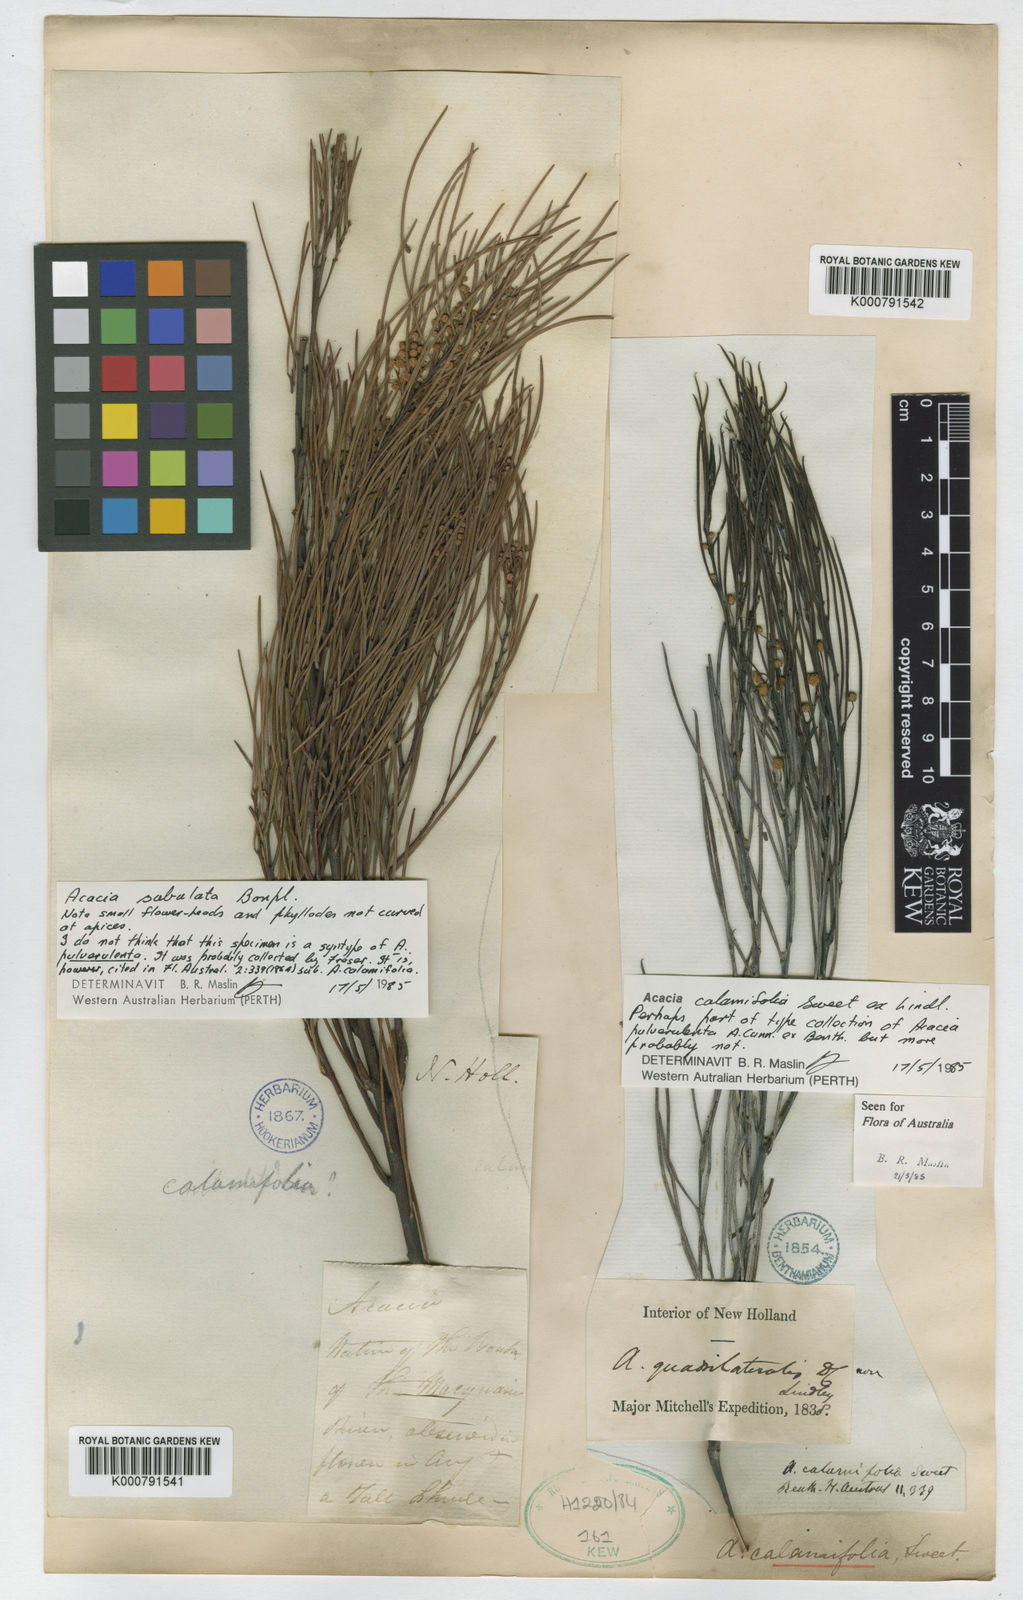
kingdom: Plantae
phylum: Tracheophyta
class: Magnoliopsida
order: Fabales
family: Fabaceae
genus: Acacia
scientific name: Acacia calamifolia
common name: Broom wattle
